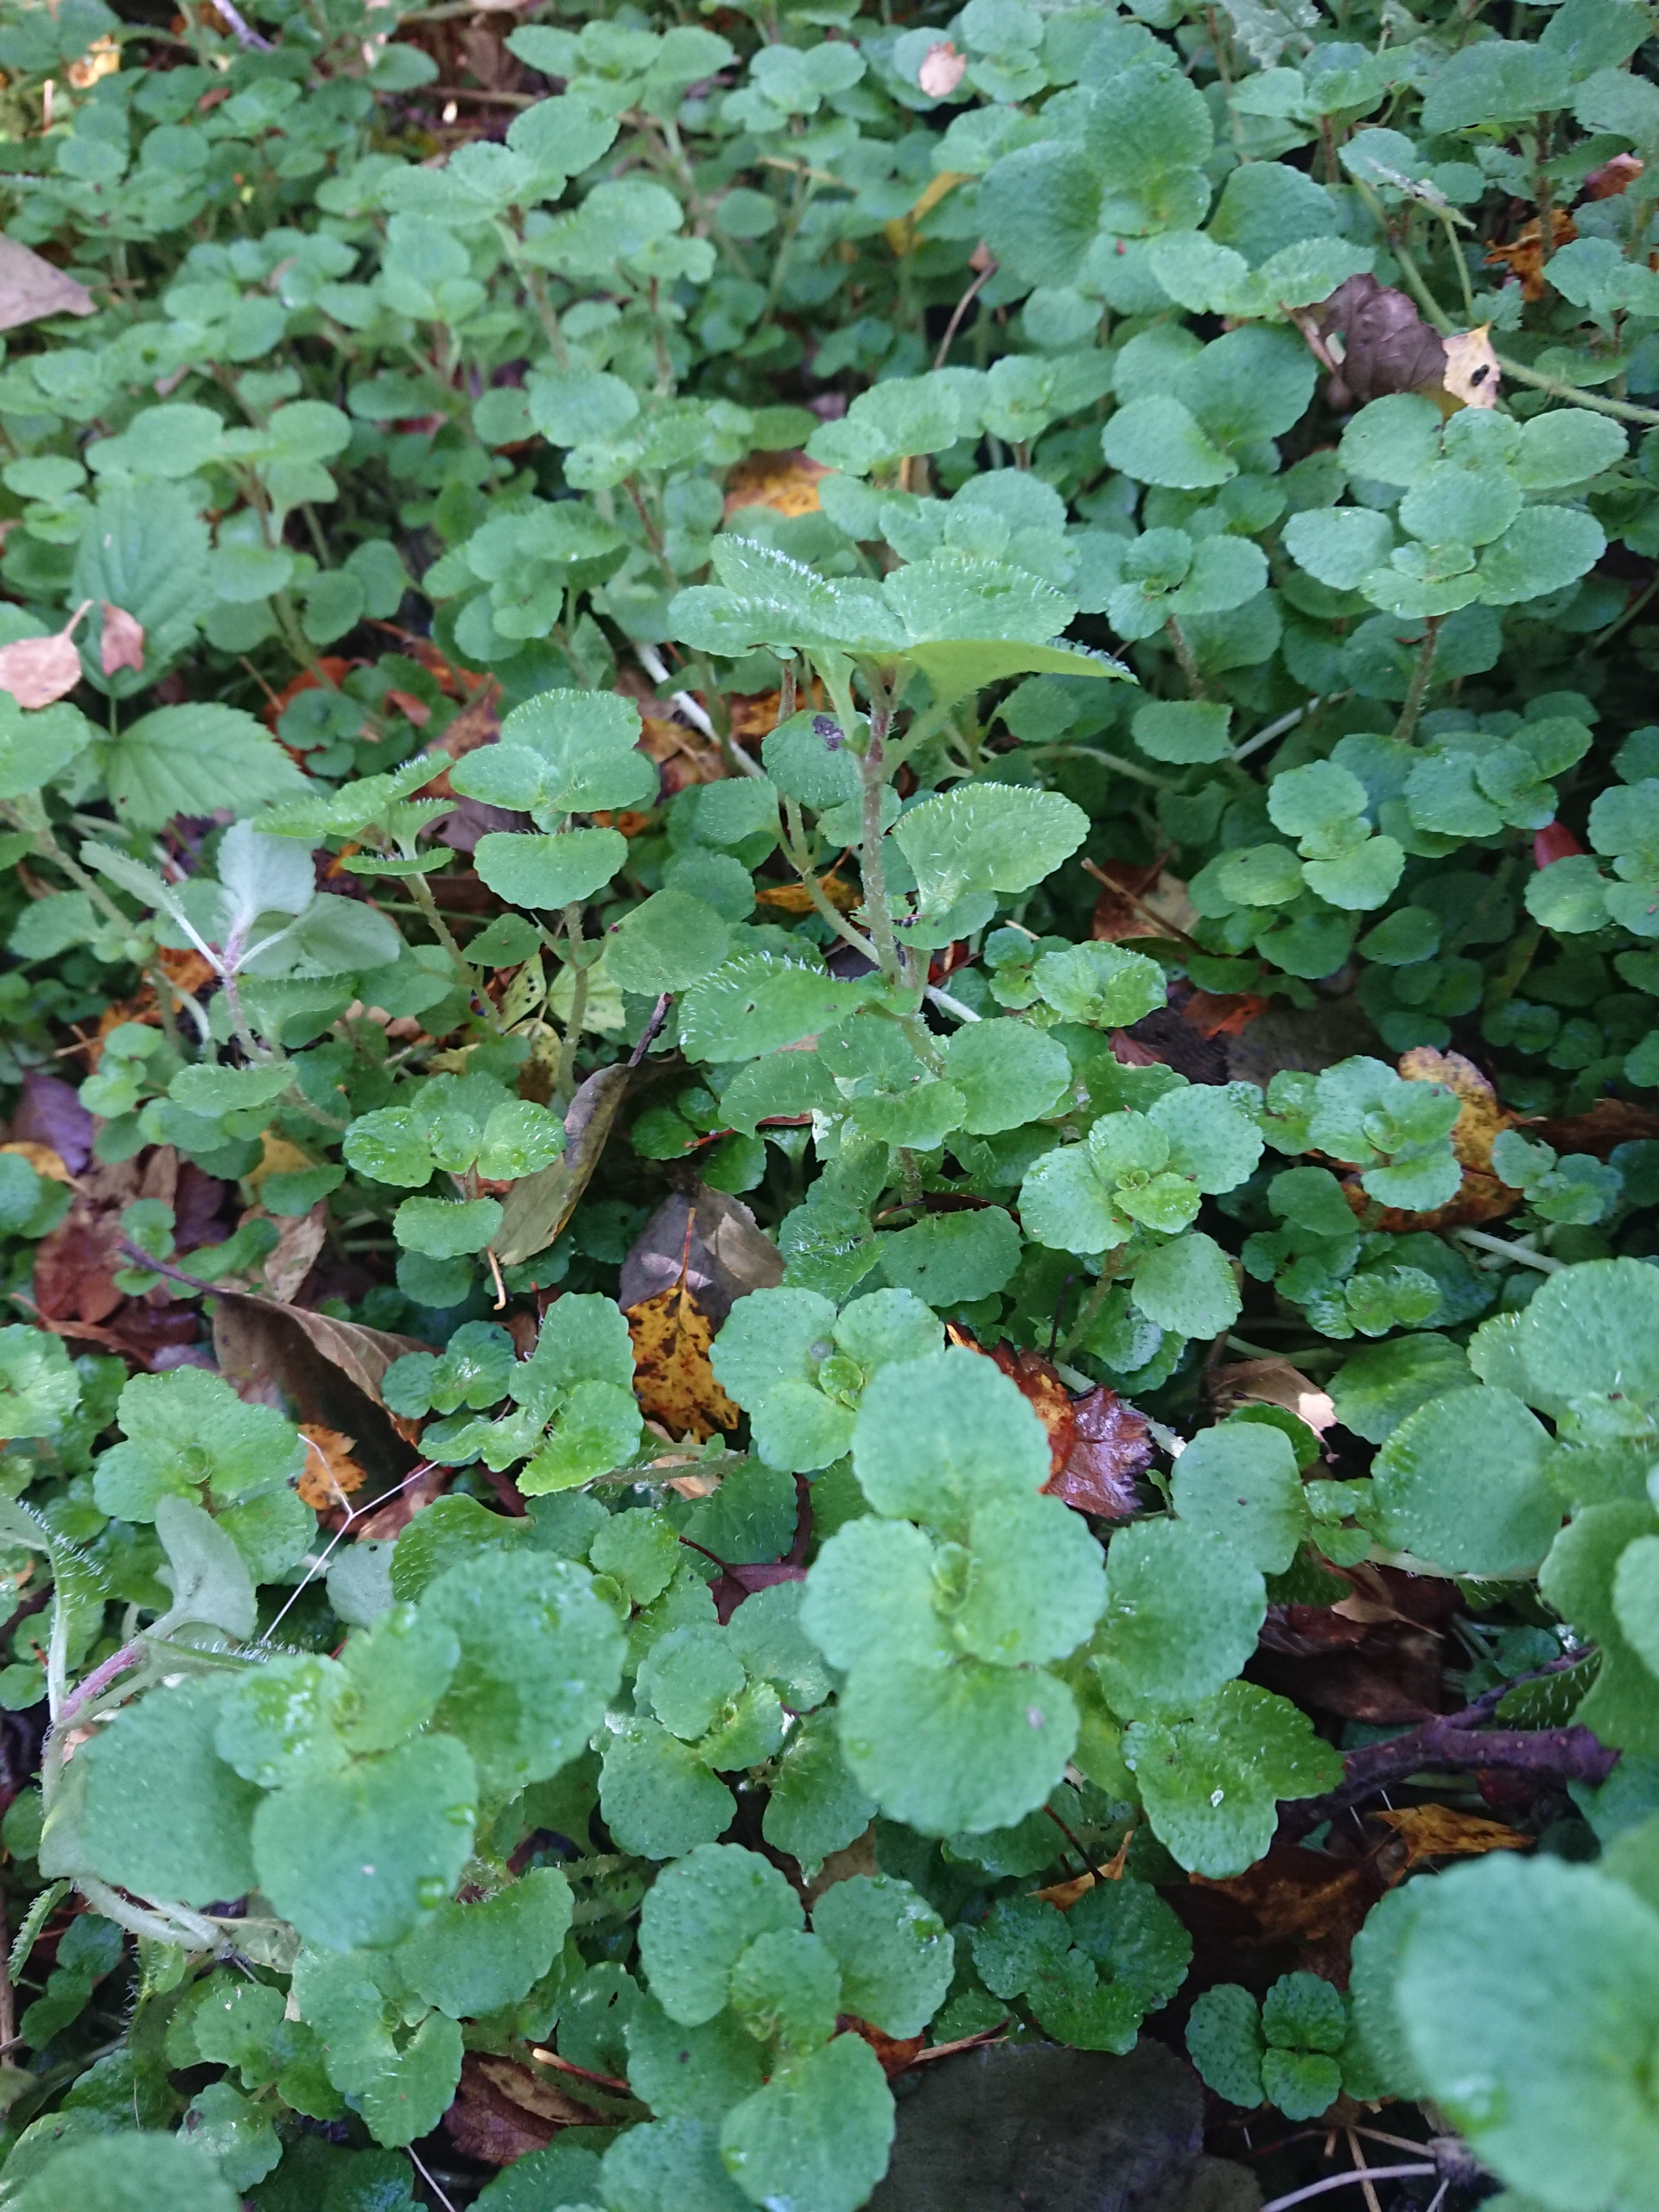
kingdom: Plantae
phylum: Tracheophyta
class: Magnoliopsida
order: Saxifragales
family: Saxifragaceae
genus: Chrysosplenium
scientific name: Chrysosplenium oppositifolium
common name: Småbladet milturt
